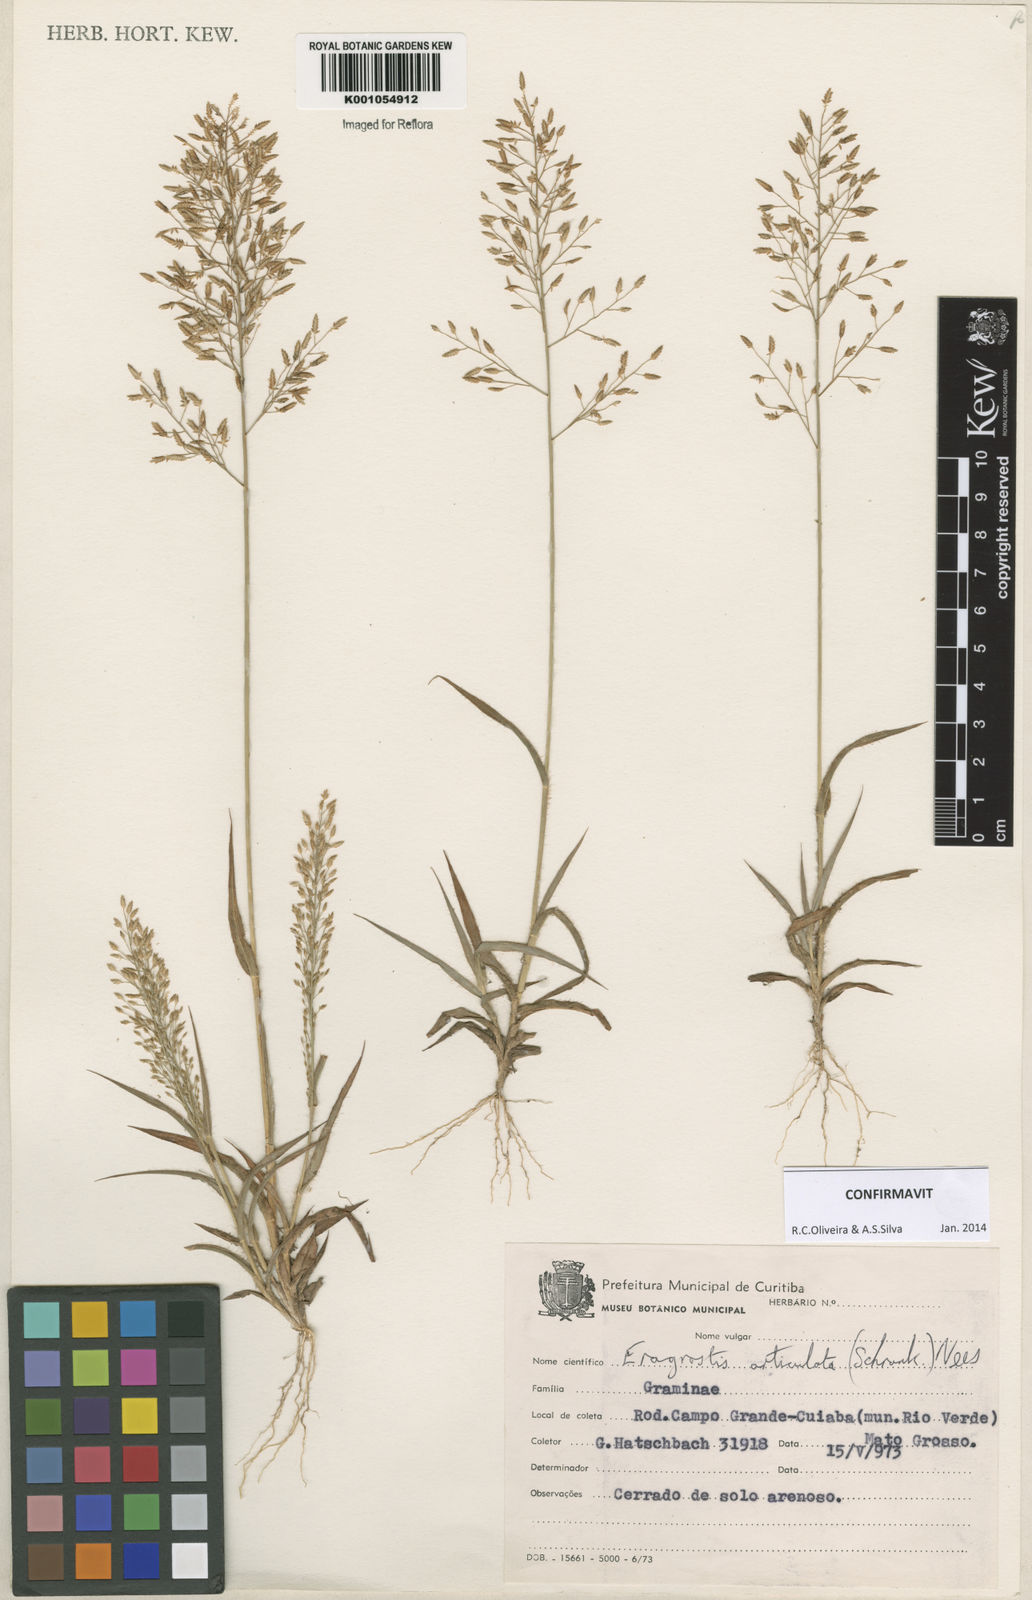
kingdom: Plantae
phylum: Tracheophyta
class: Liliopsida
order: Poales
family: Poaceae
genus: Eragrostis
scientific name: Eragrostis articulata
